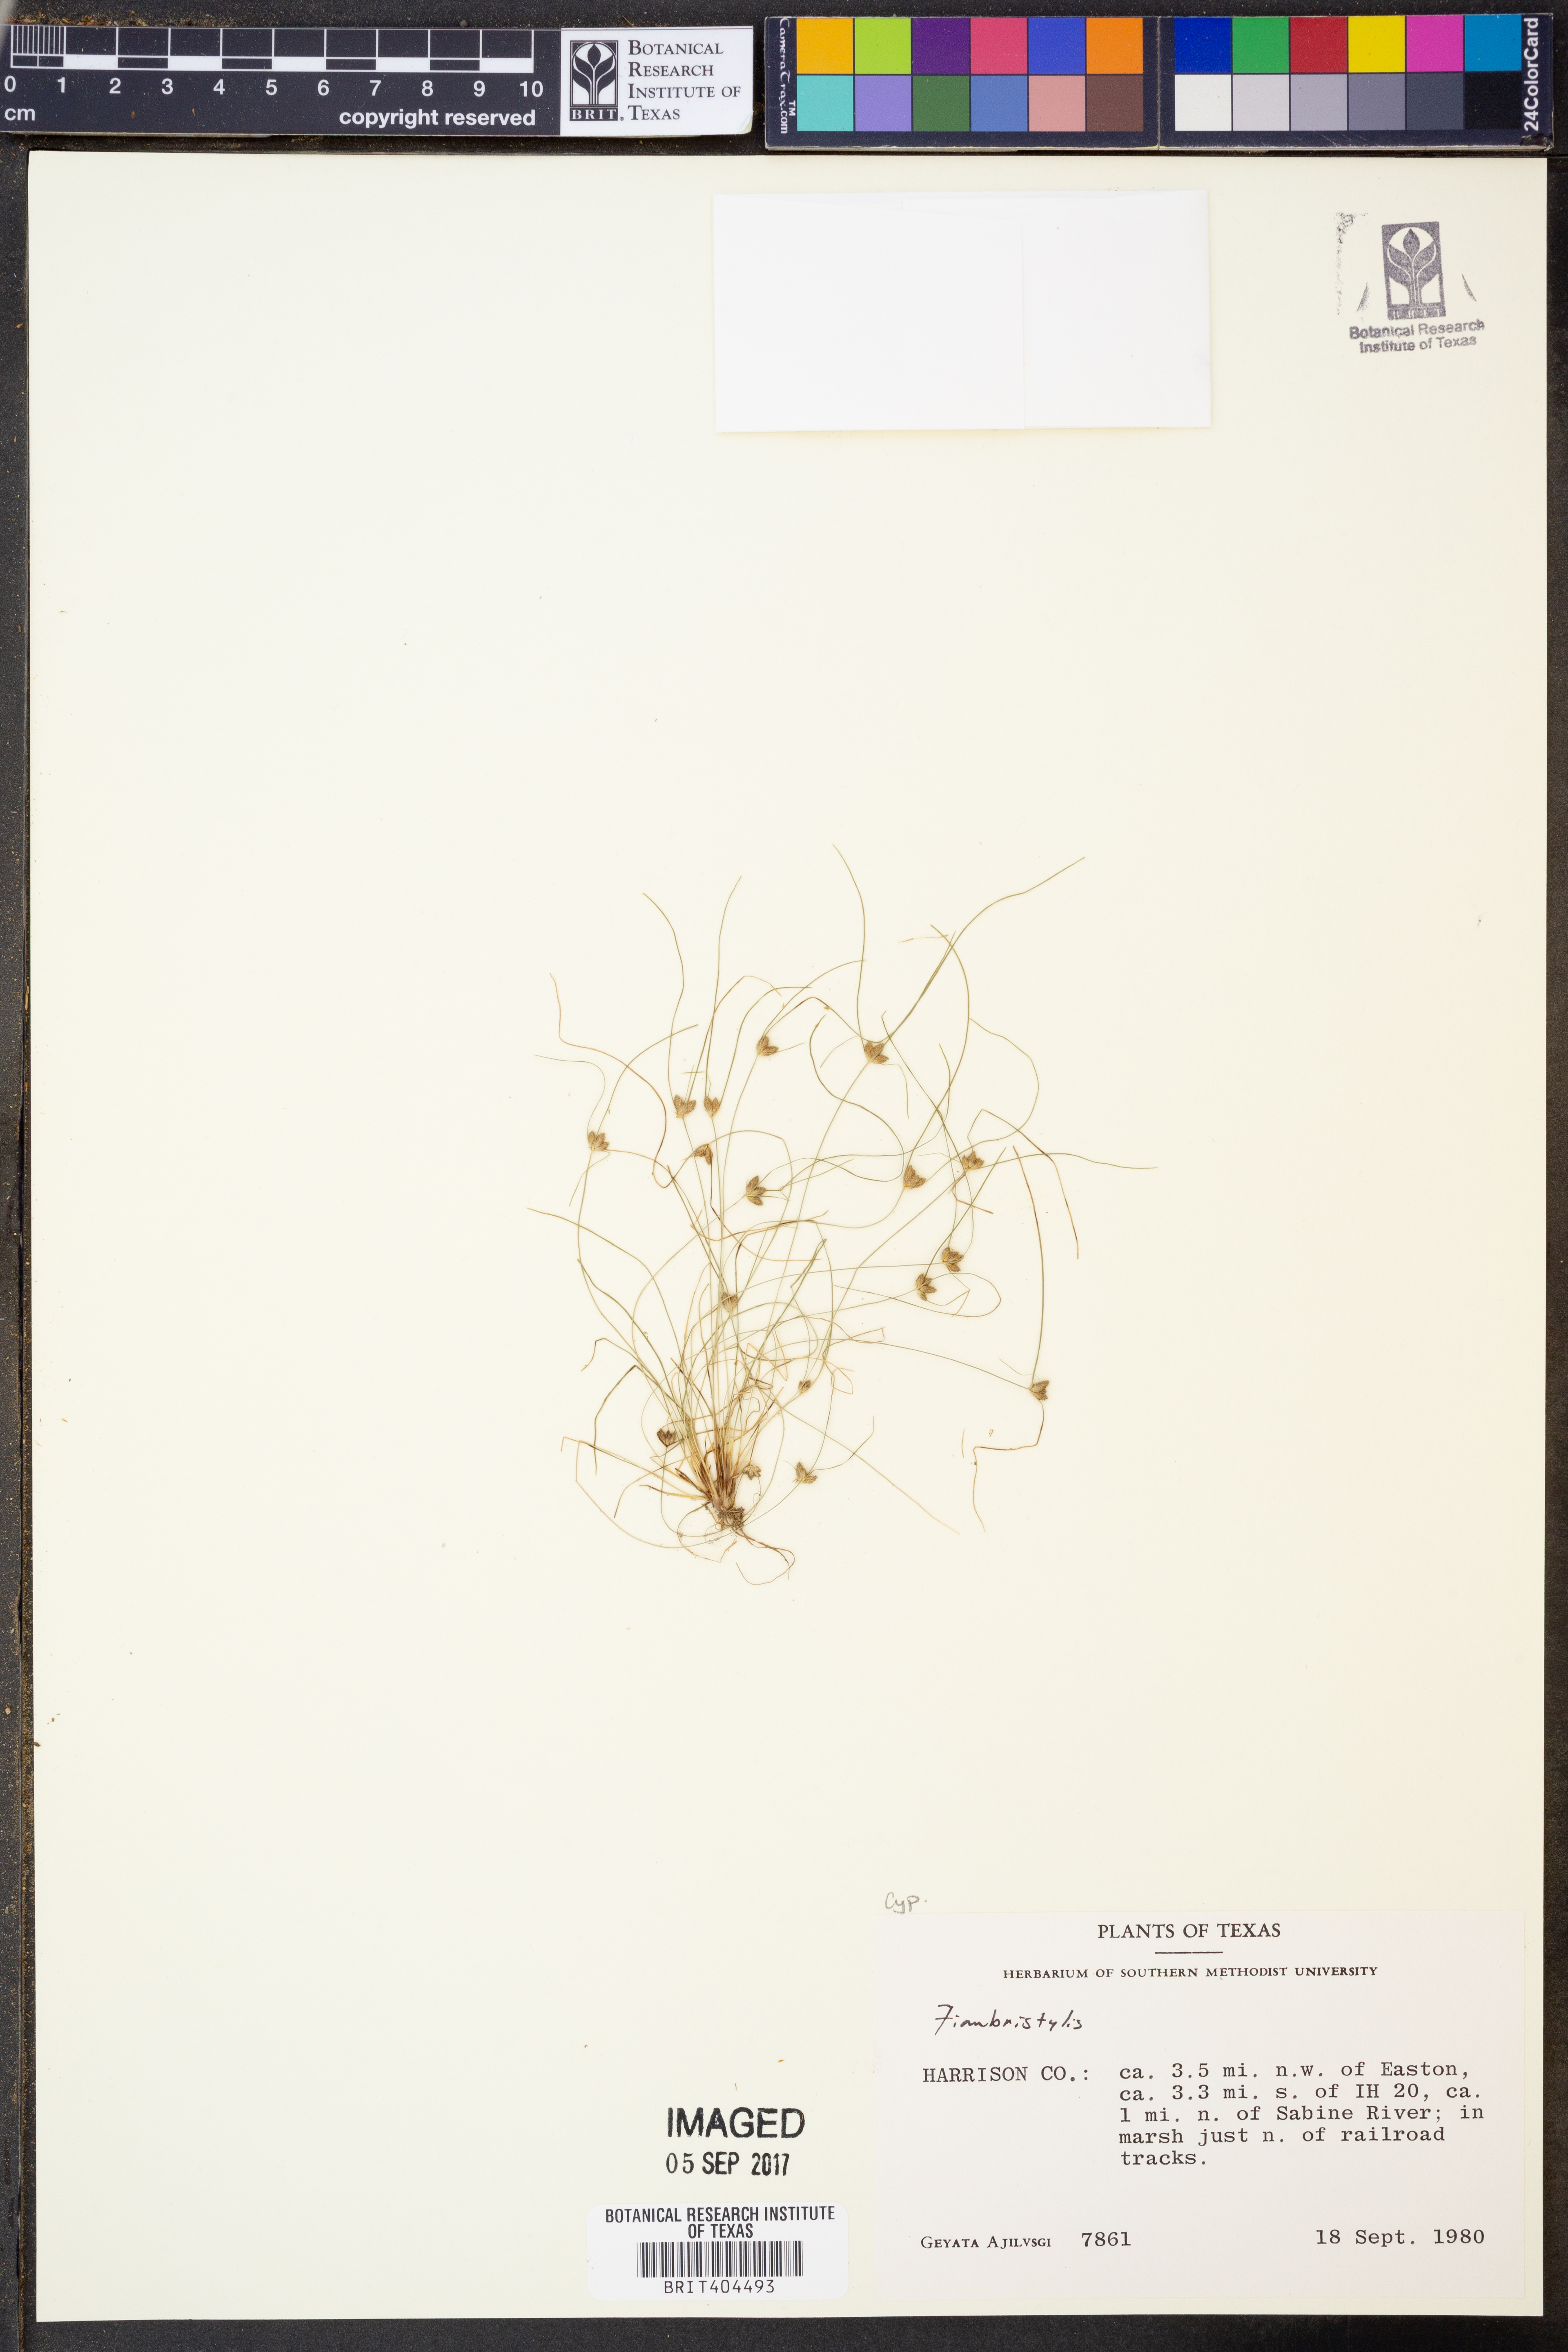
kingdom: Plantae
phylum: Tracheophyta
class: Liliopsida
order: Poales
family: Cyperaceae
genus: Fimbristylis
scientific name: Fimbristylis
